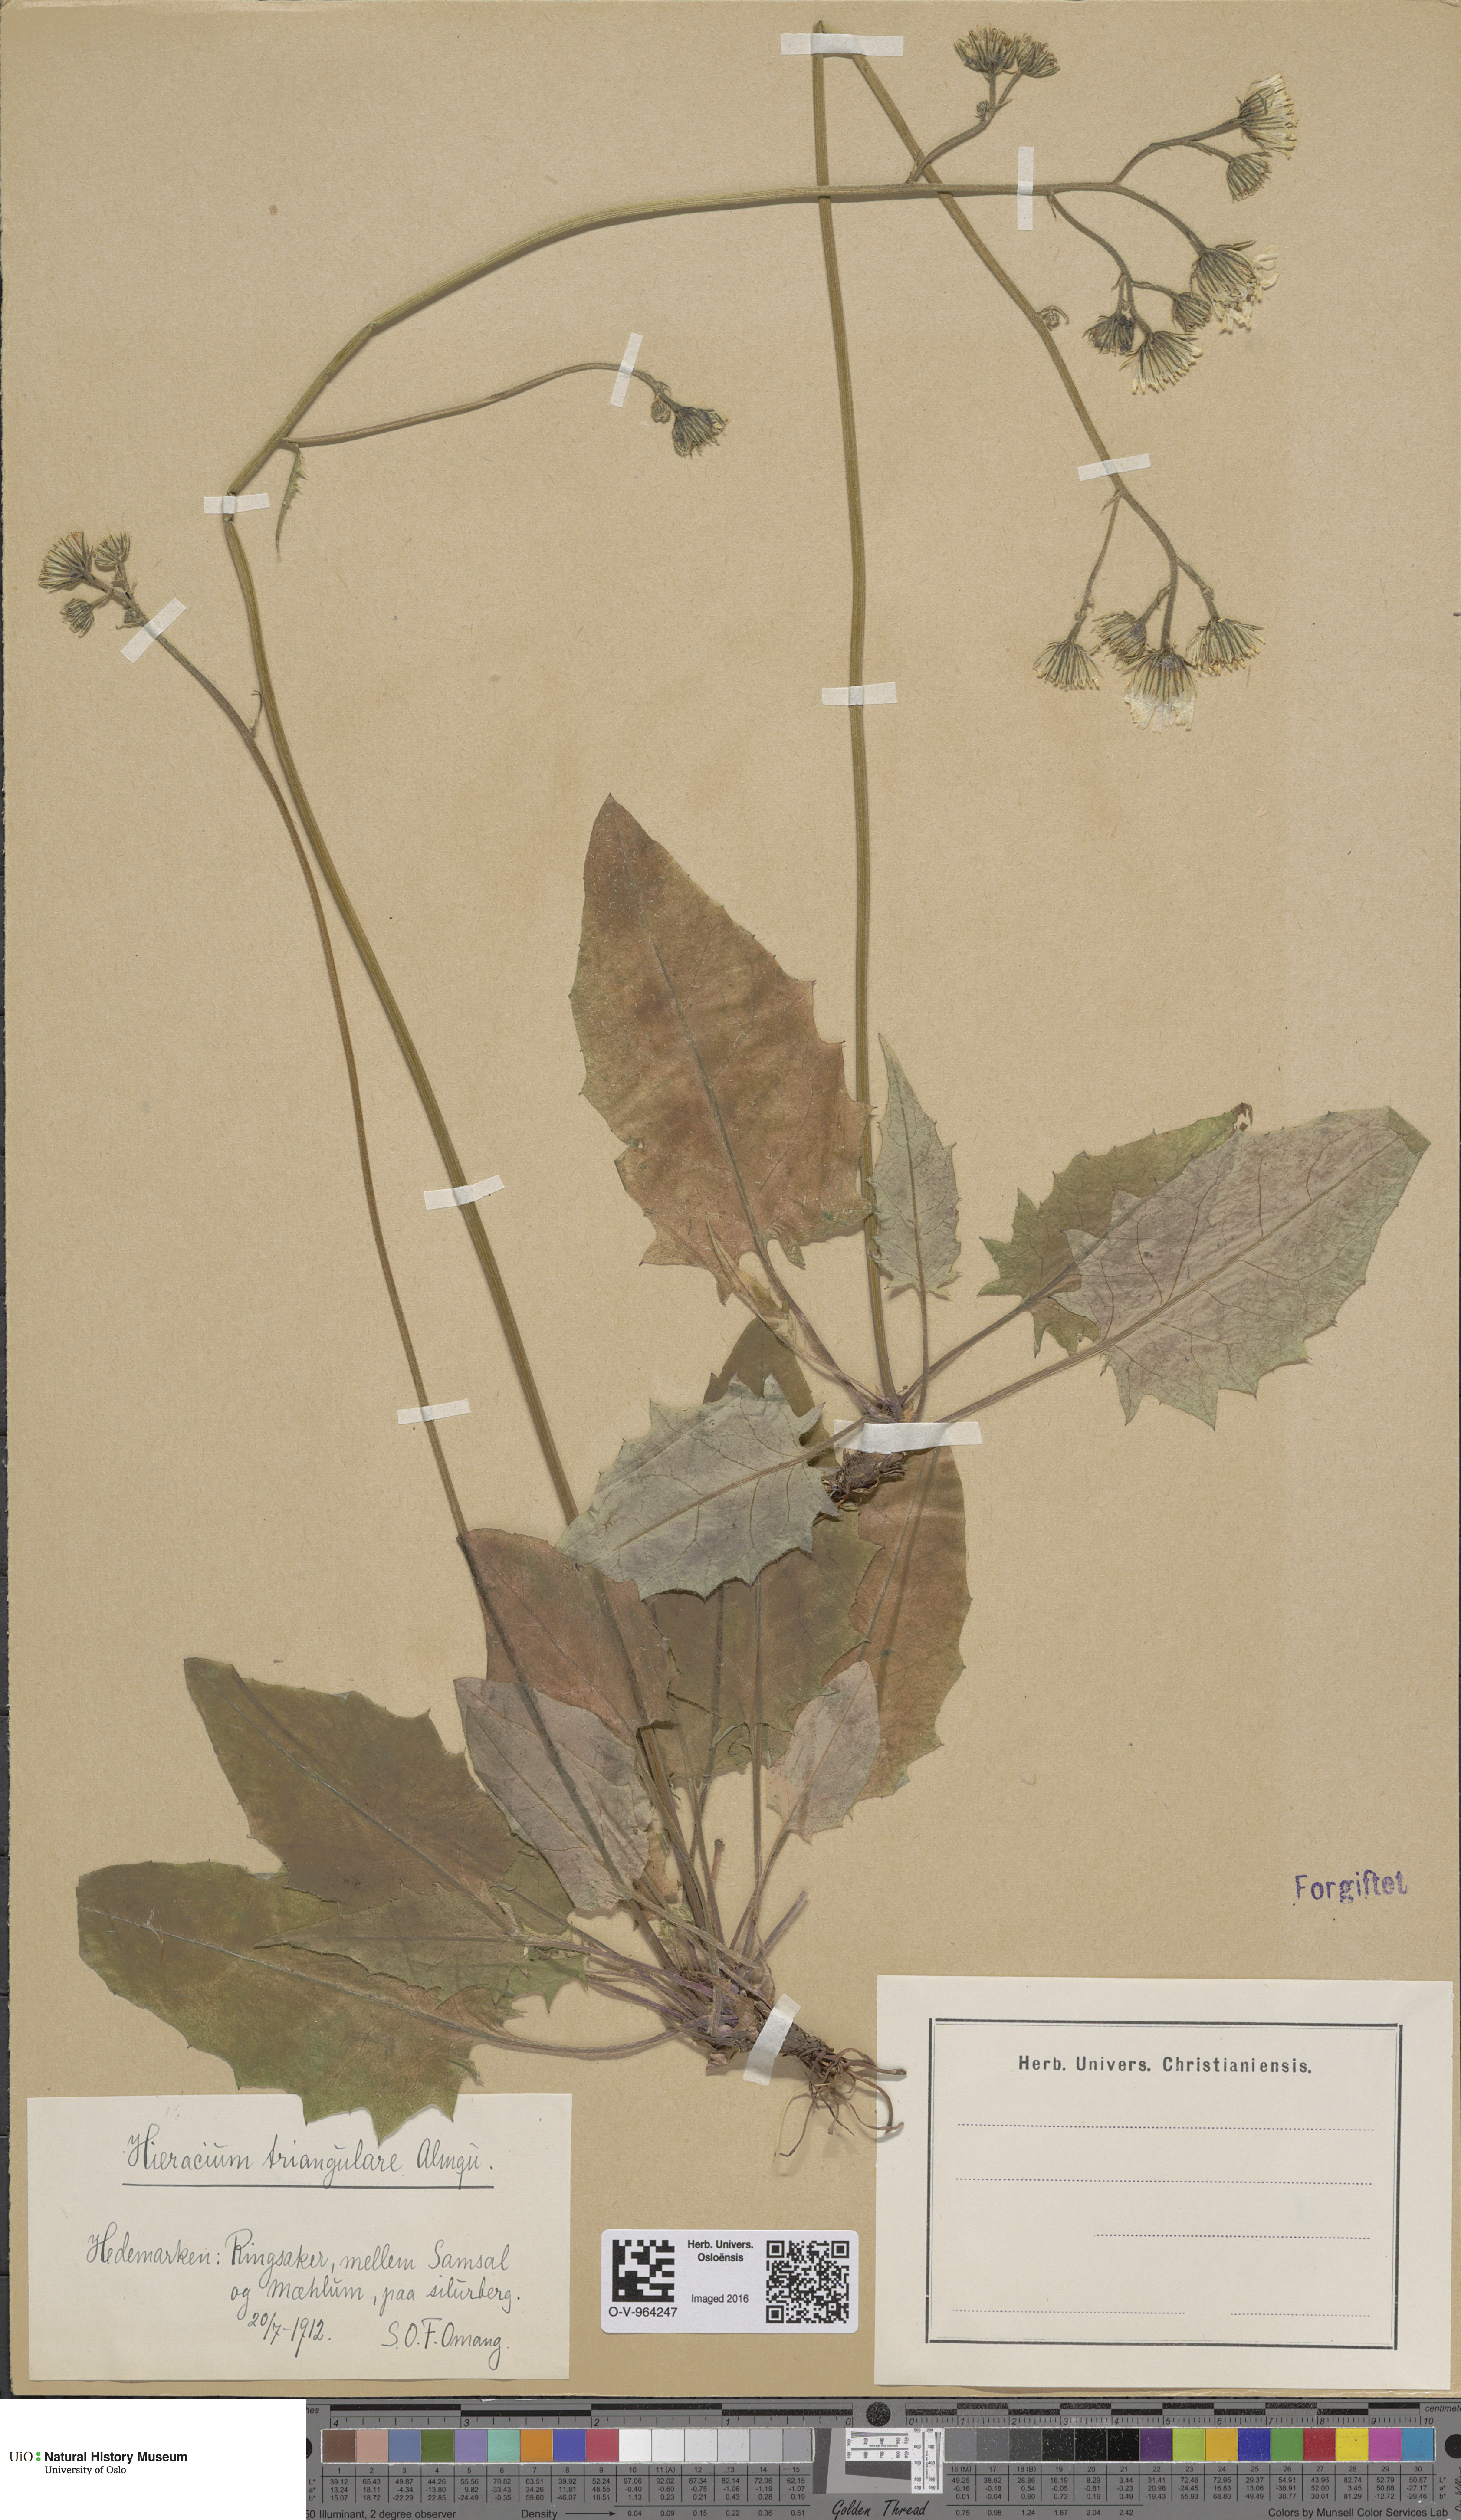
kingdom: Plantae
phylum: Tracheophyta
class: Magnoliopsida
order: Asterales
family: Asteraceae
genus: Hieracium
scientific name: Hieracium triangulare
